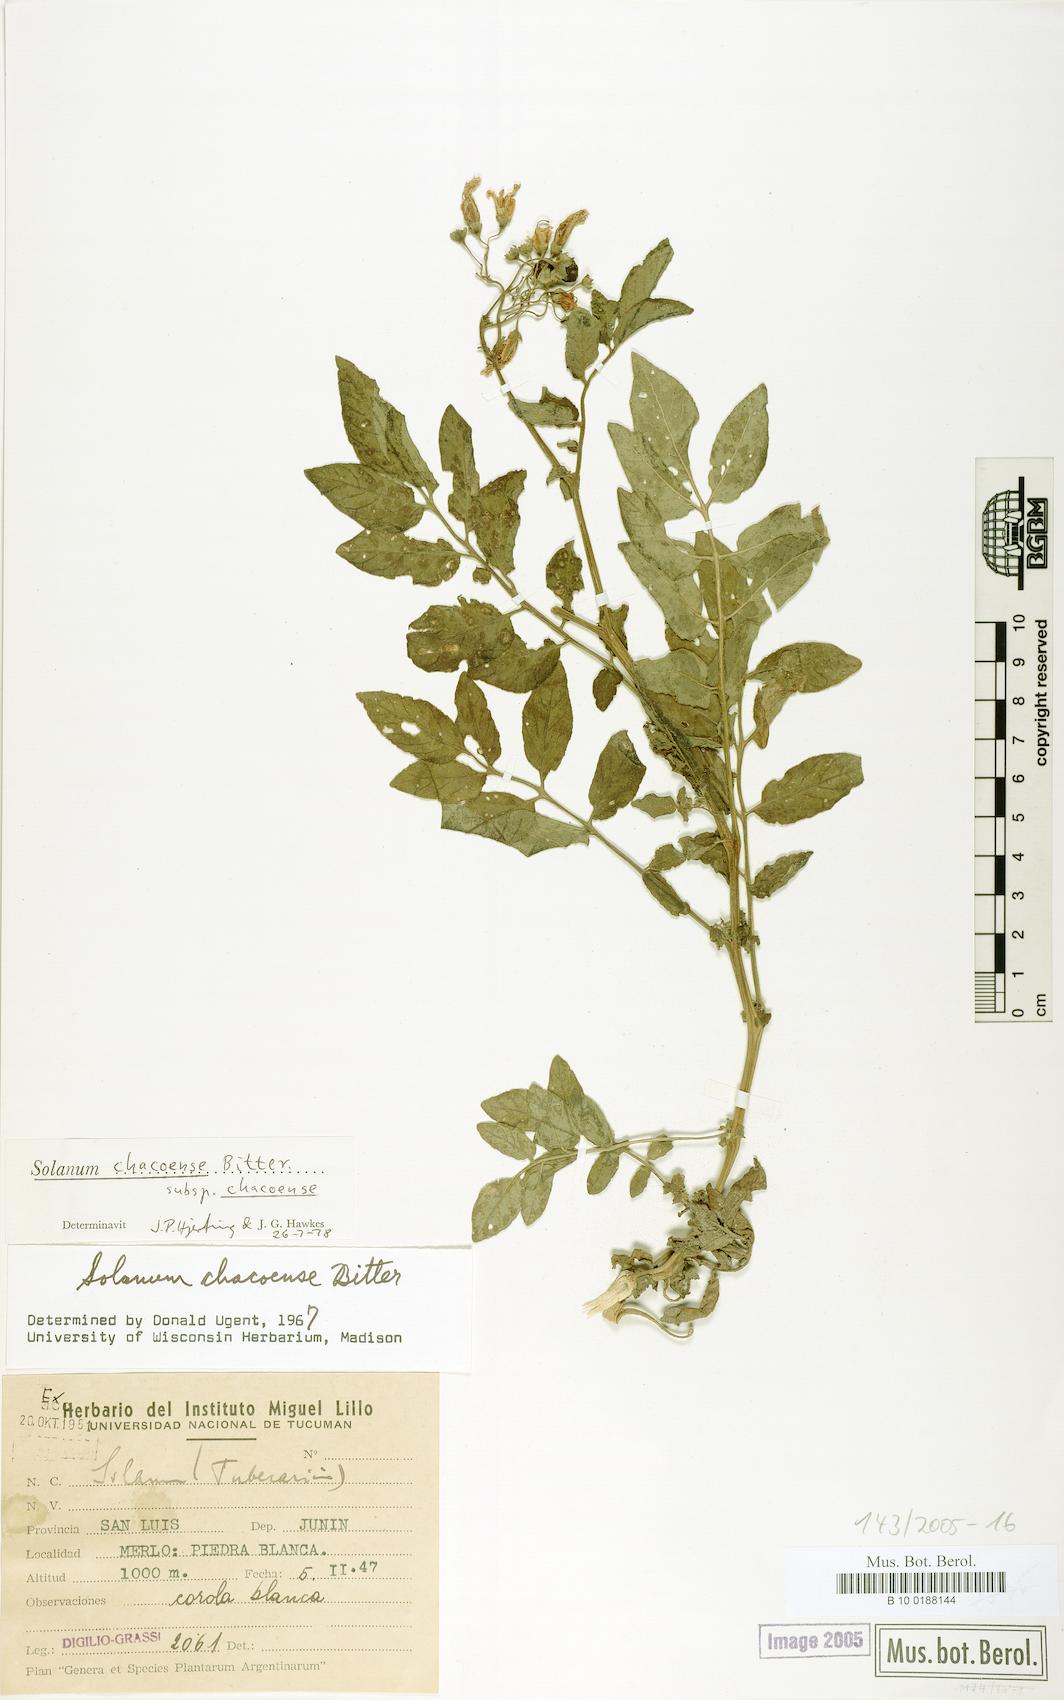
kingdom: Plantae
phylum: Tracheophyta
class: Magnoliopsida
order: Solanales
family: Solanaceae
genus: Solanum
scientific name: Solanum chacoense
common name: Chaco potato
